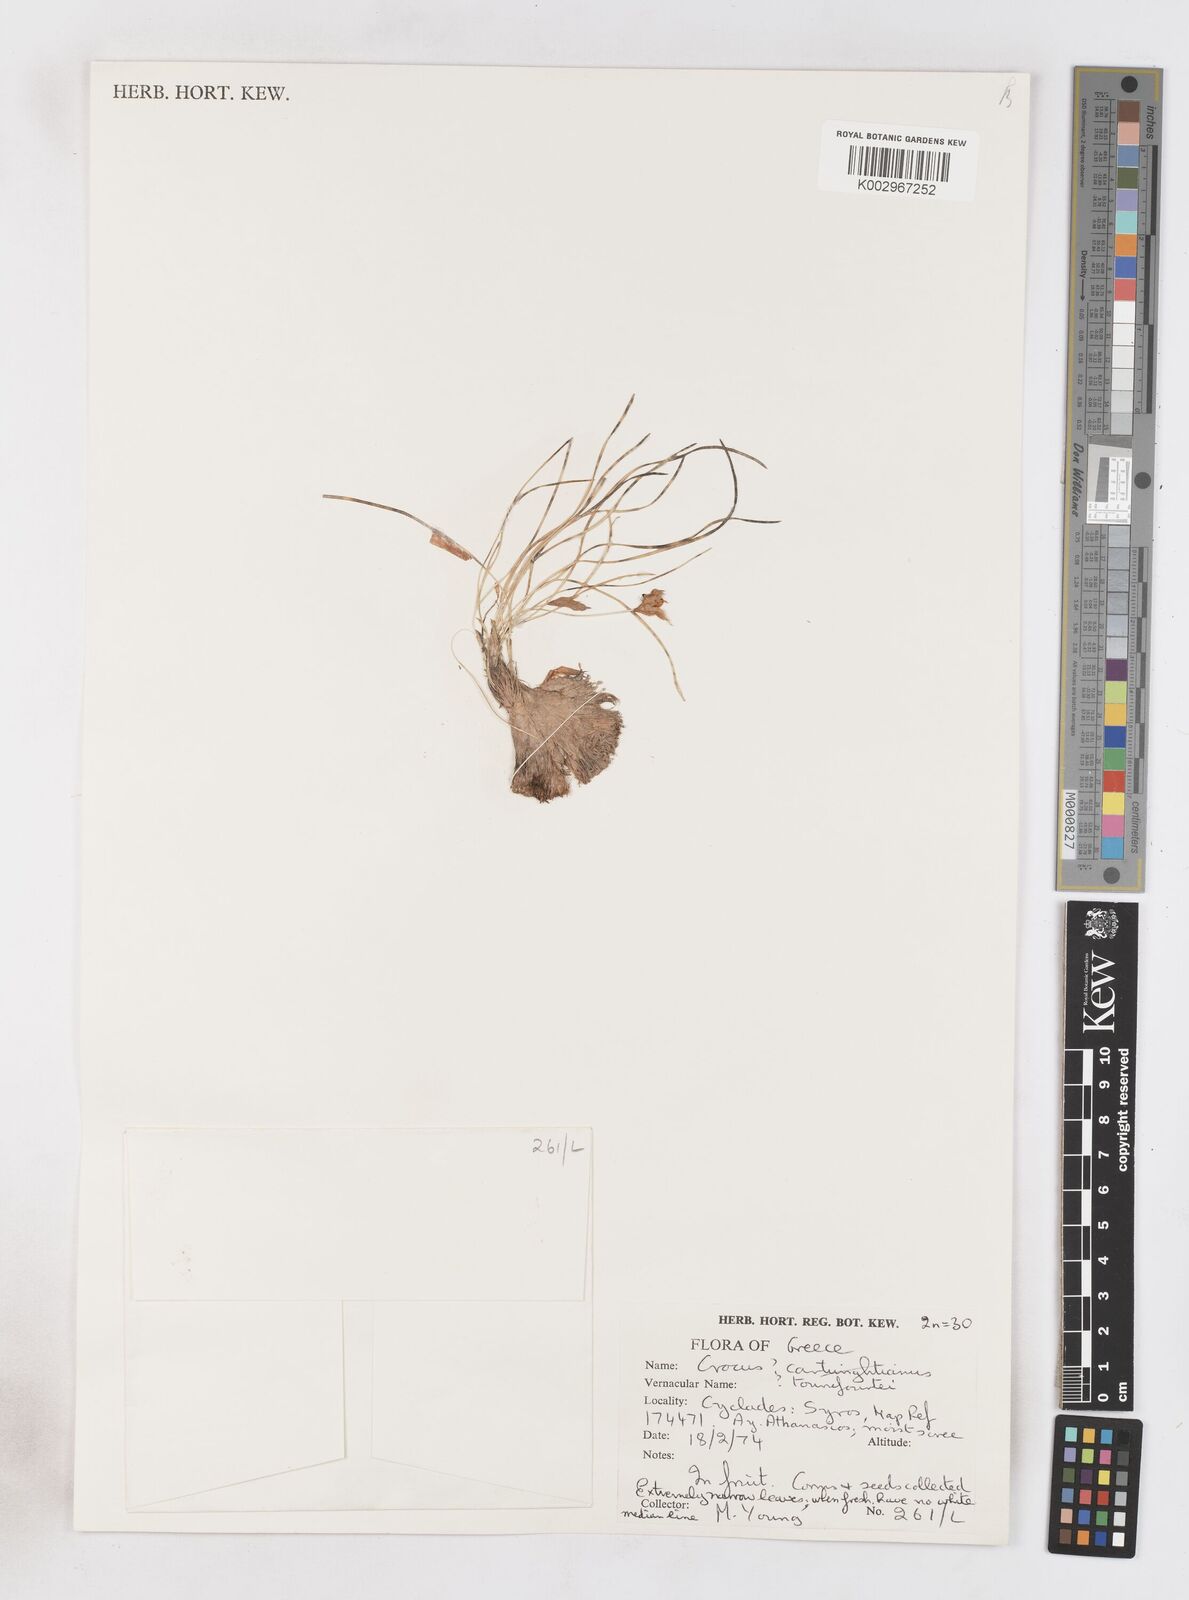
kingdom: Plantae
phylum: Tracheophyta
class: Liliopsida
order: Asparagales
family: Iridaceae
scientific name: Iridaceae
